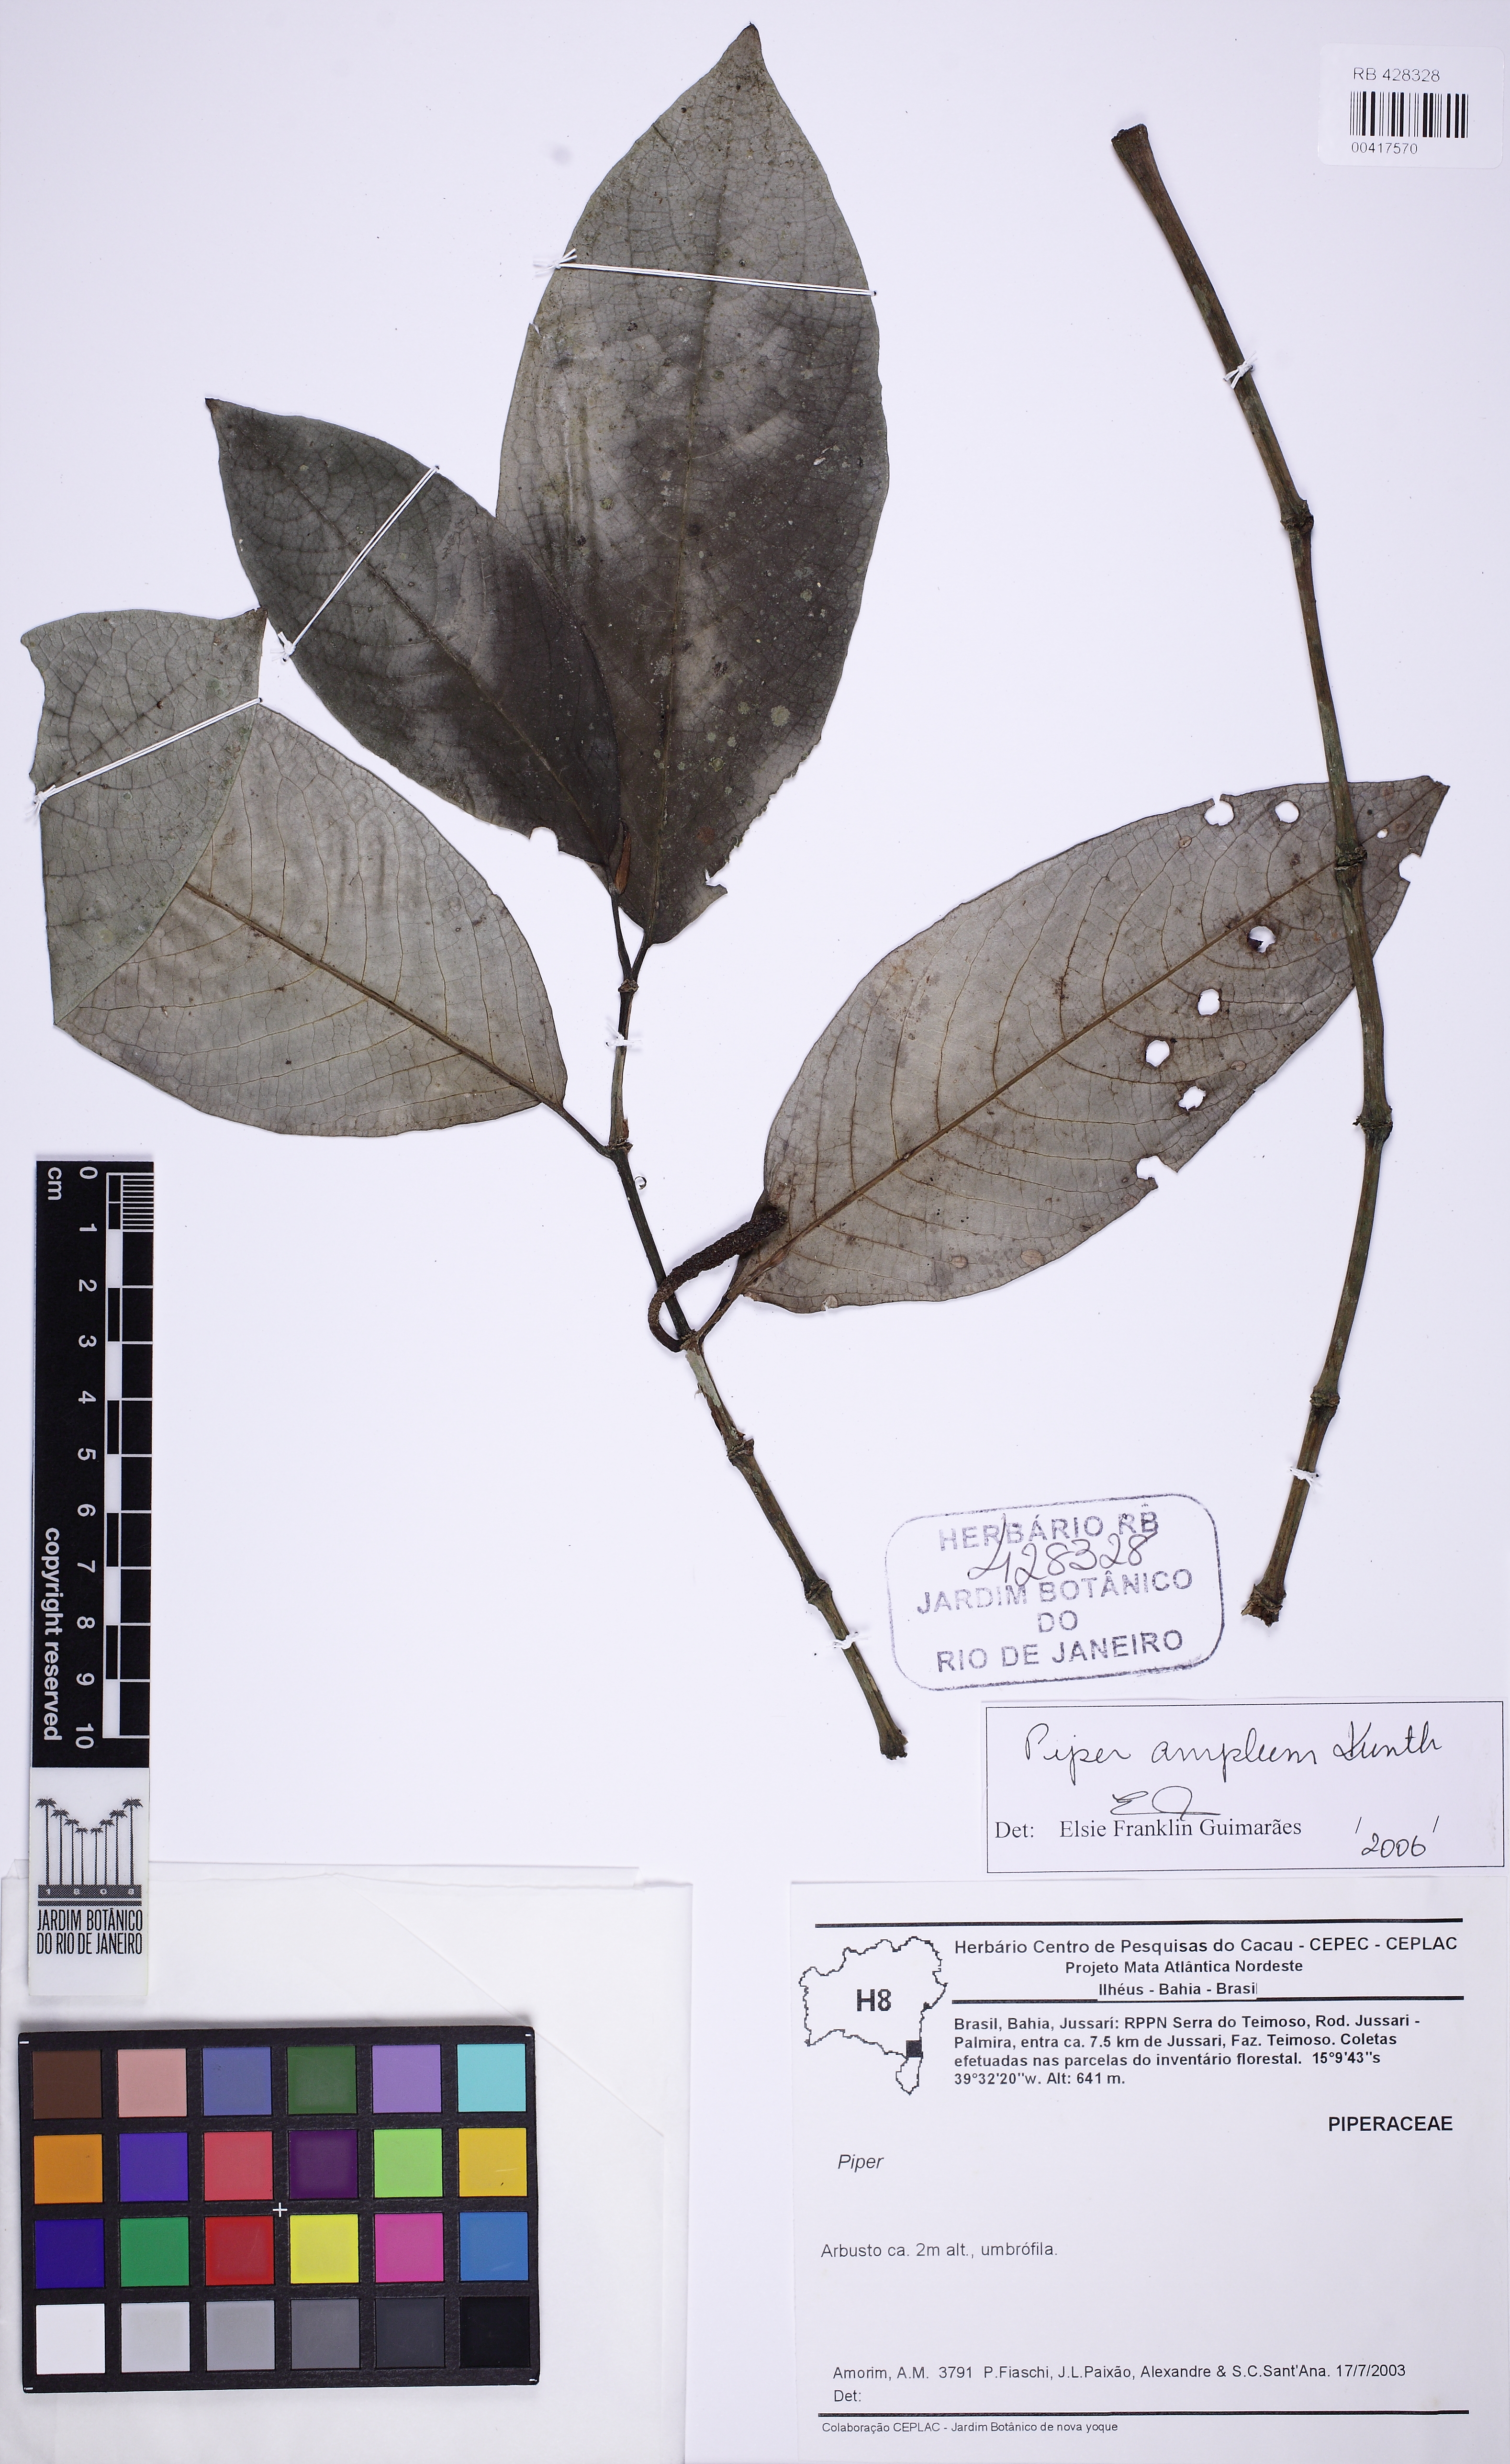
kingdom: Plantae
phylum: Tracheophyta
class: Magnoliopsida
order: Piperales
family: Piperaceae
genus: Piper
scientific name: Piper fluminense
